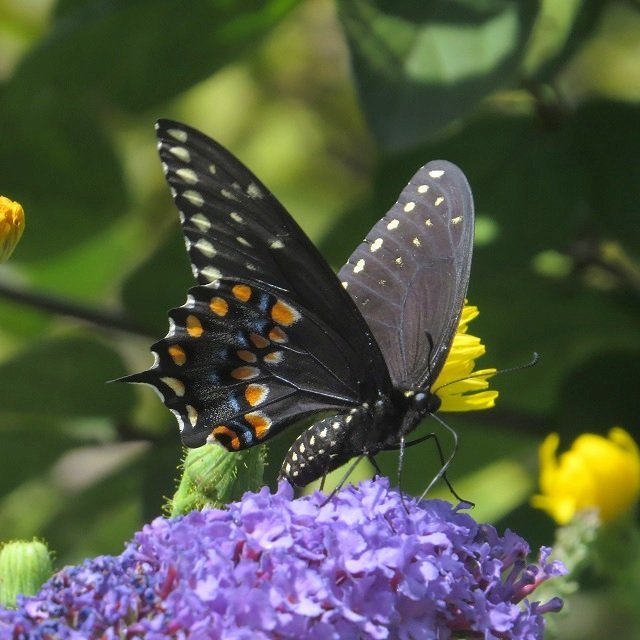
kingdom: Animalia
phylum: Arthropoda
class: Insecta
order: Lepidoptera
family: Papilionidae
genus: Papilio
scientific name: Papilio polyxenes
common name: Black Swallowtail
